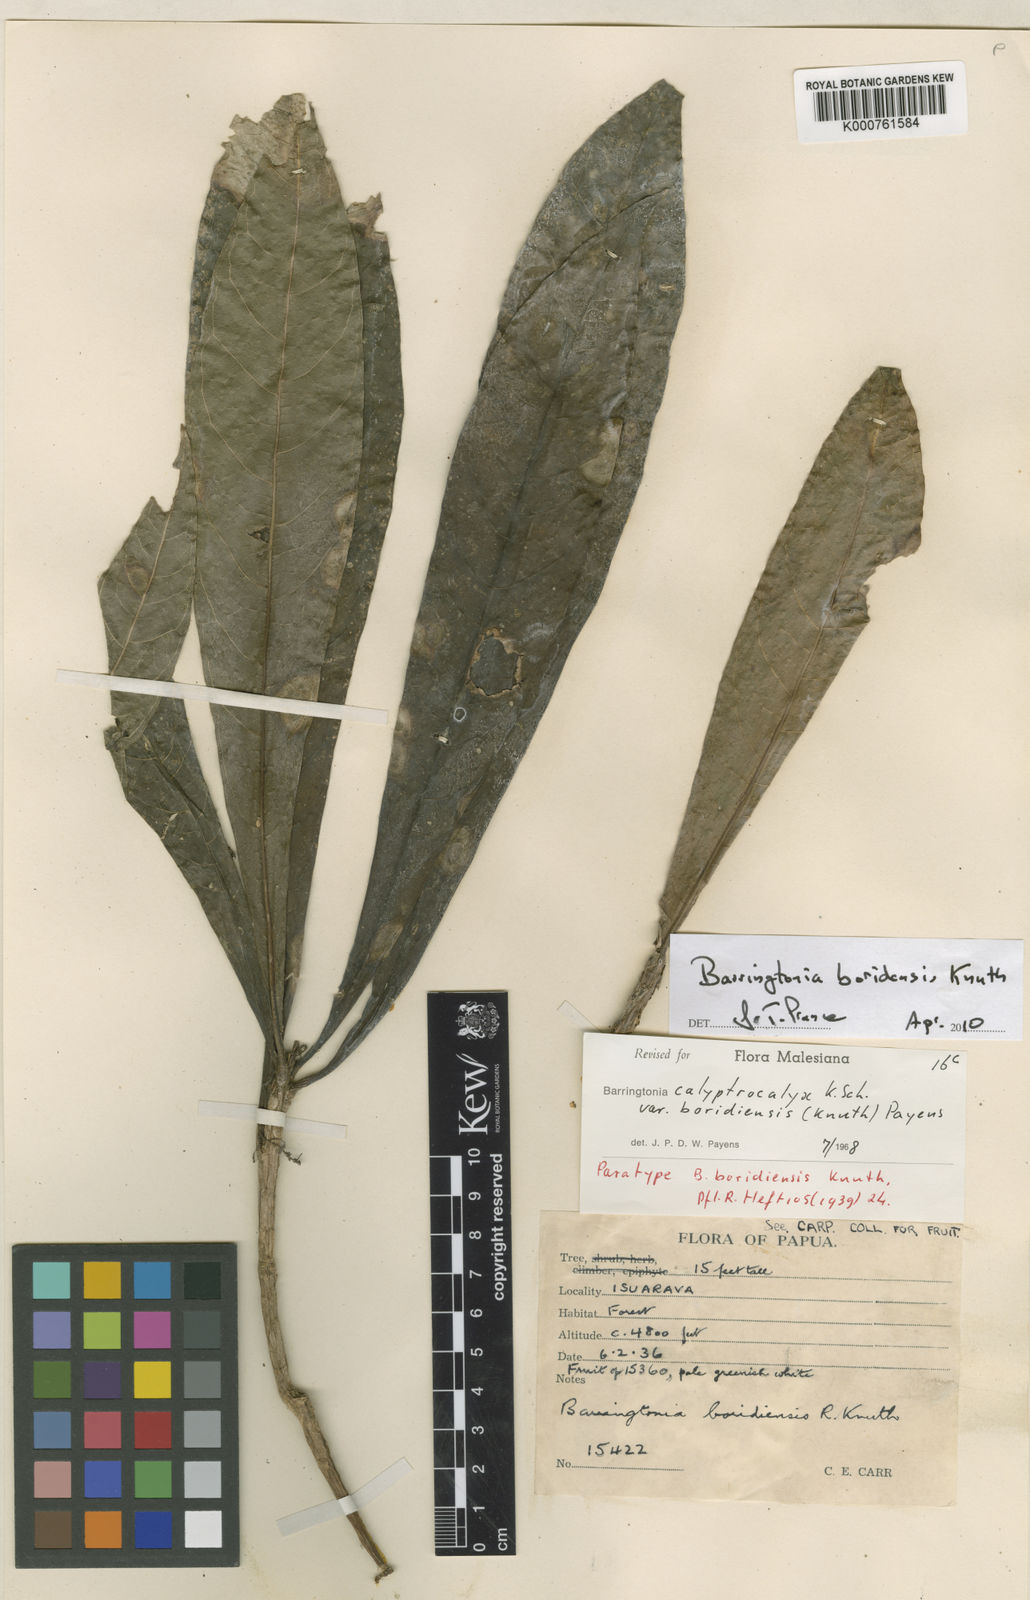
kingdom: Plantae
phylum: Tracheophyta
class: Magnoliopsida
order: Ericales
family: Lecythidaceae
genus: Barringtonia
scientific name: Barringtonia calyptrocalyx
